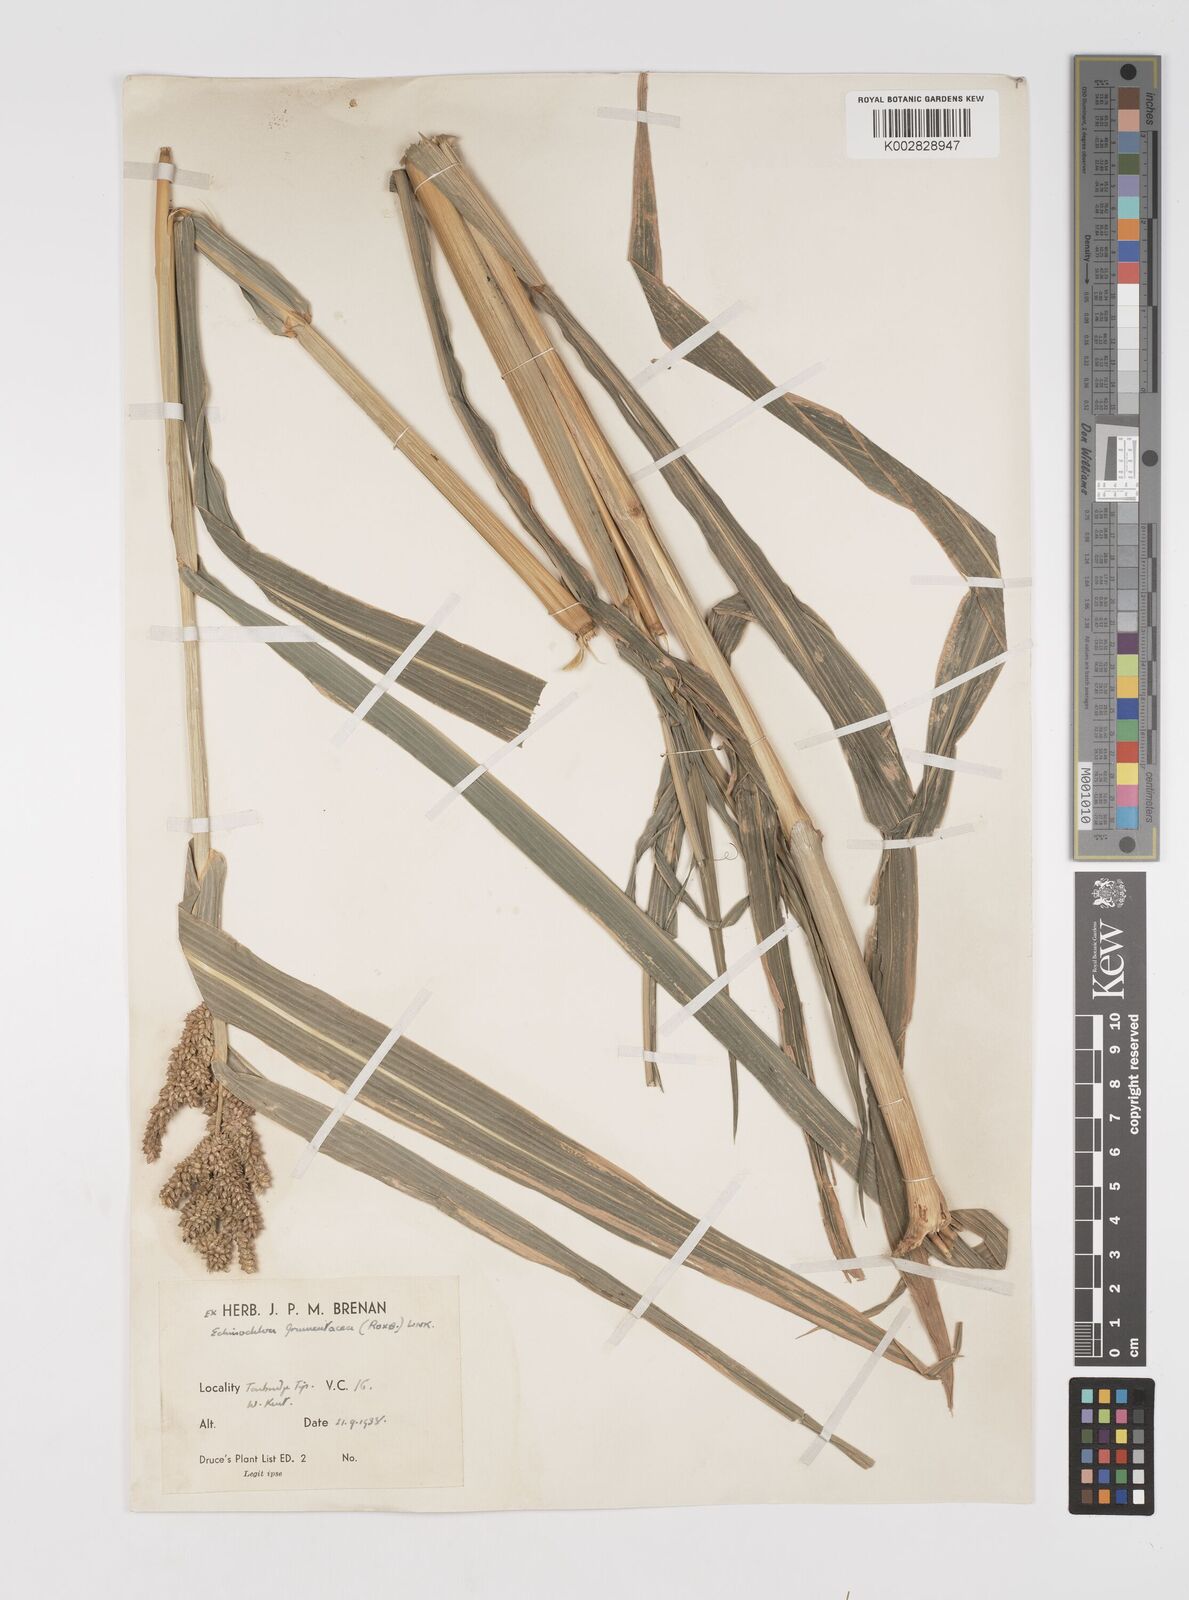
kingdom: Plantae
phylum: Tracheophyta
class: Liliopsida
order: Poales
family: Poaceae
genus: Echinochloa
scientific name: Echinochloa frumentacea
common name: Billion-dollar grass
